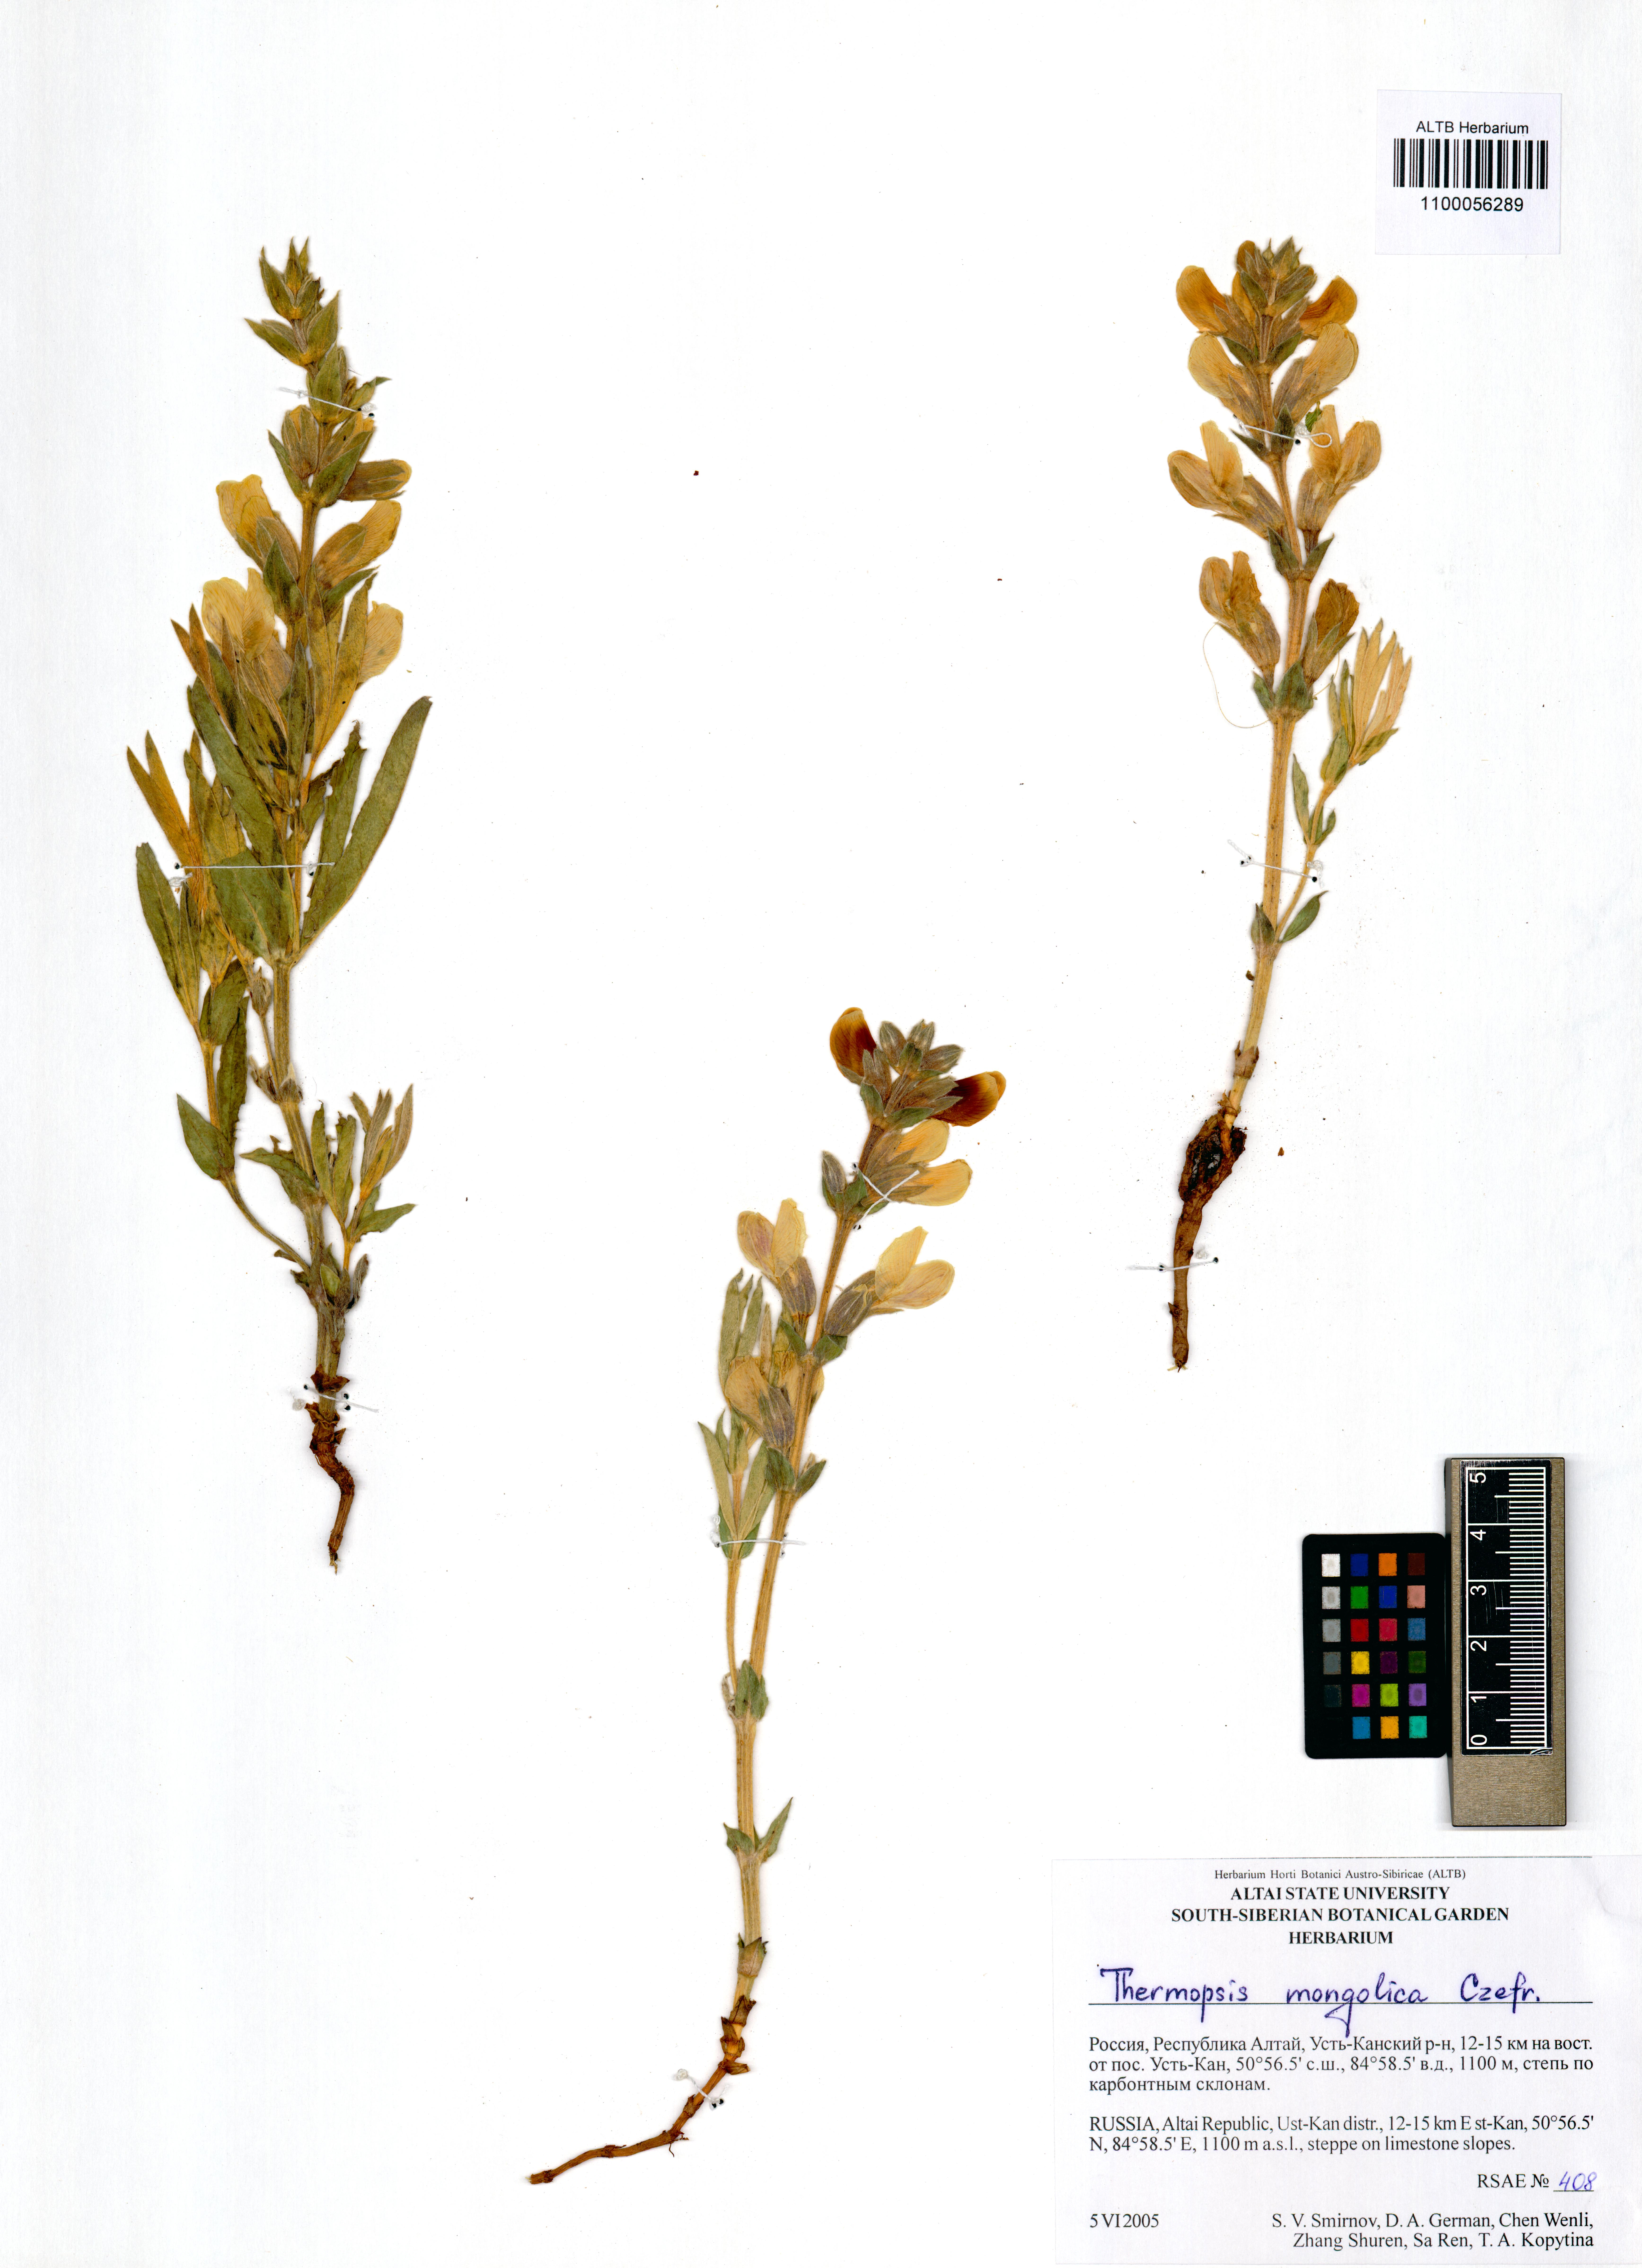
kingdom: Plantae
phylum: Tracheophyta
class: Magnoliopsida
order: Fabales
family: Fabaceae
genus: Thermopsis
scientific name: Thermopsis mongolica
